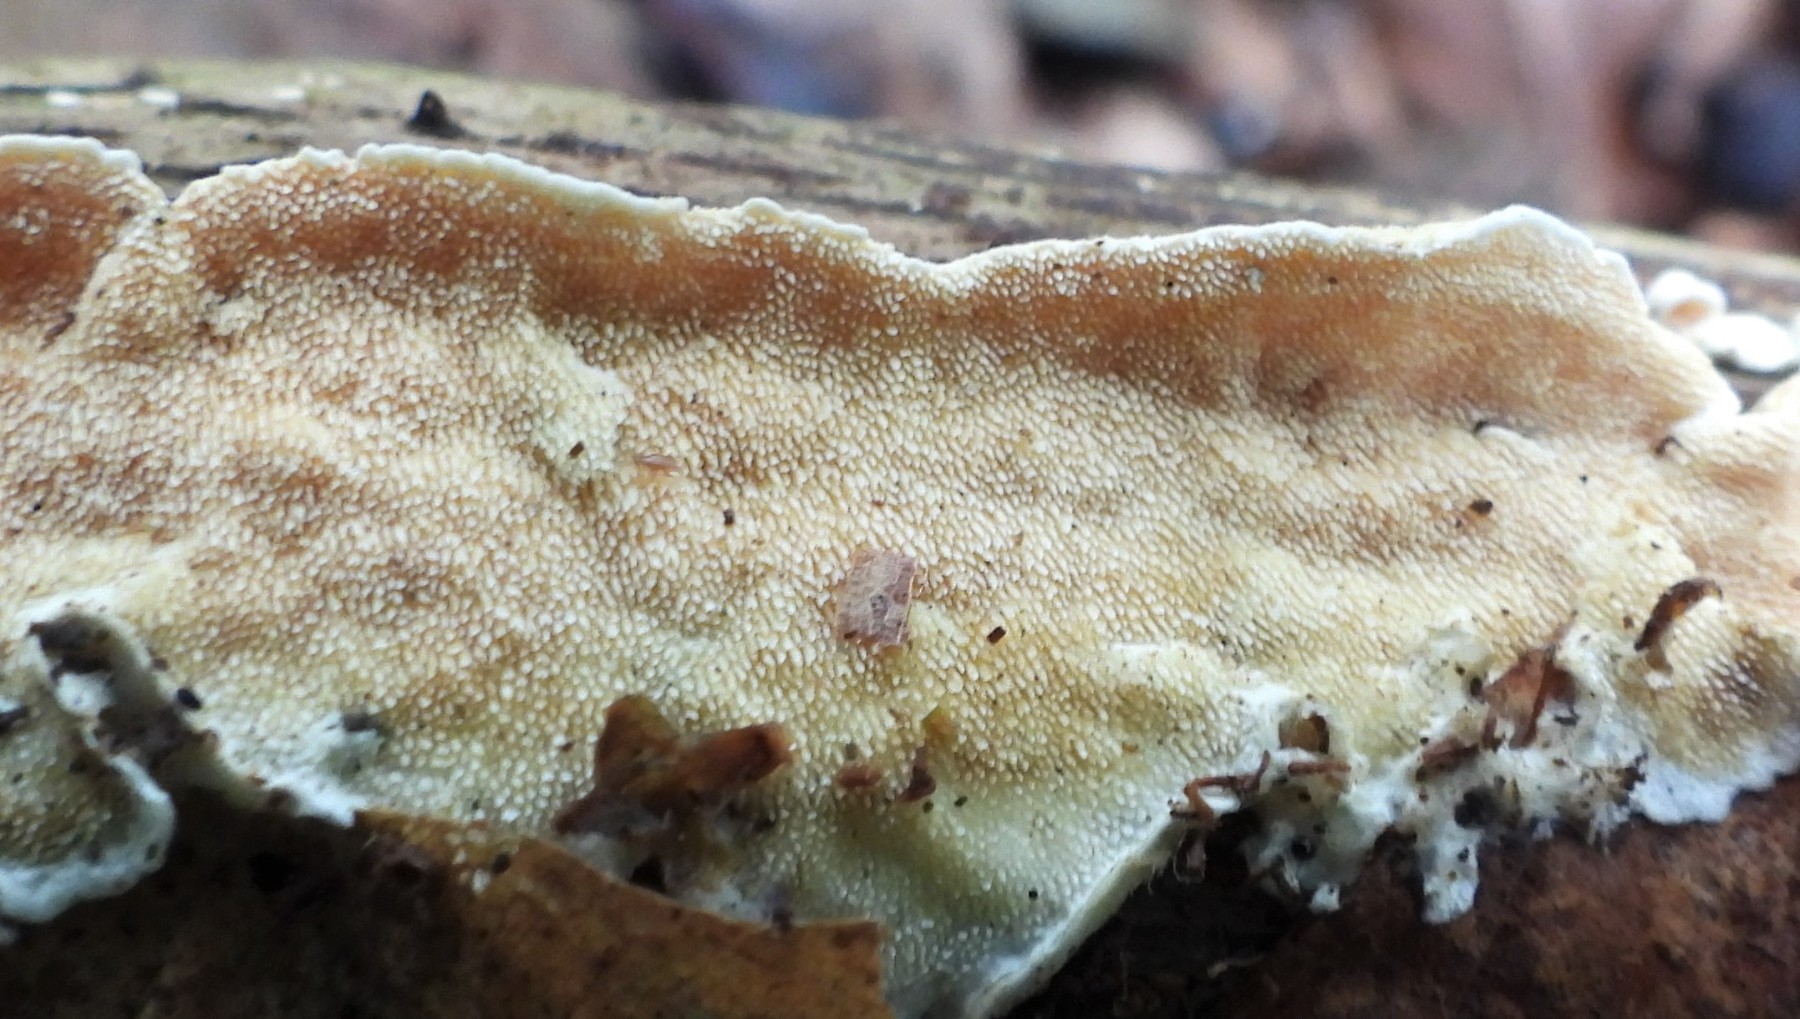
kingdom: Fungi
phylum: Basidiomycota
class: Agaricomycetes
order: Polyporales
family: Steccherinaceae
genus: Steccherinum
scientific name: Steccherinum ochraceum
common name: almindelig skønpig
